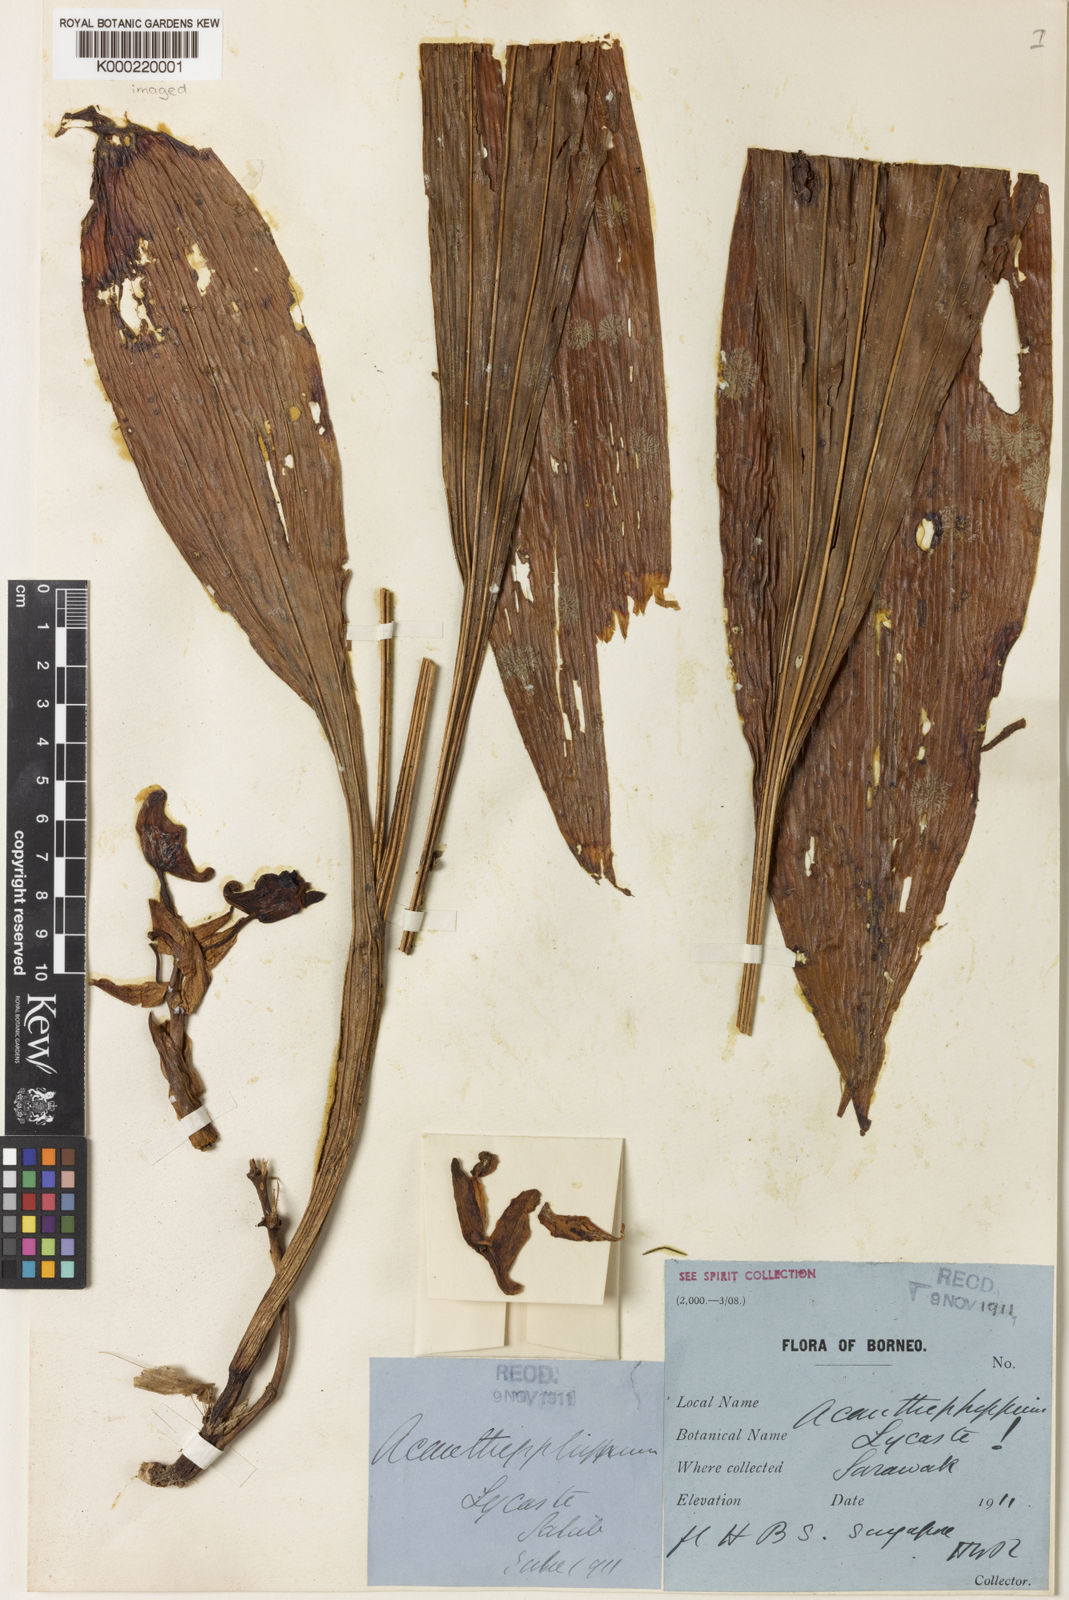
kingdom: Plantae
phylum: Tracheophyta
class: Liliopsida
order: Asparagales
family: Orchidaceae
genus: Acanthophippium
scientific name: Acanthophippium eburneum
